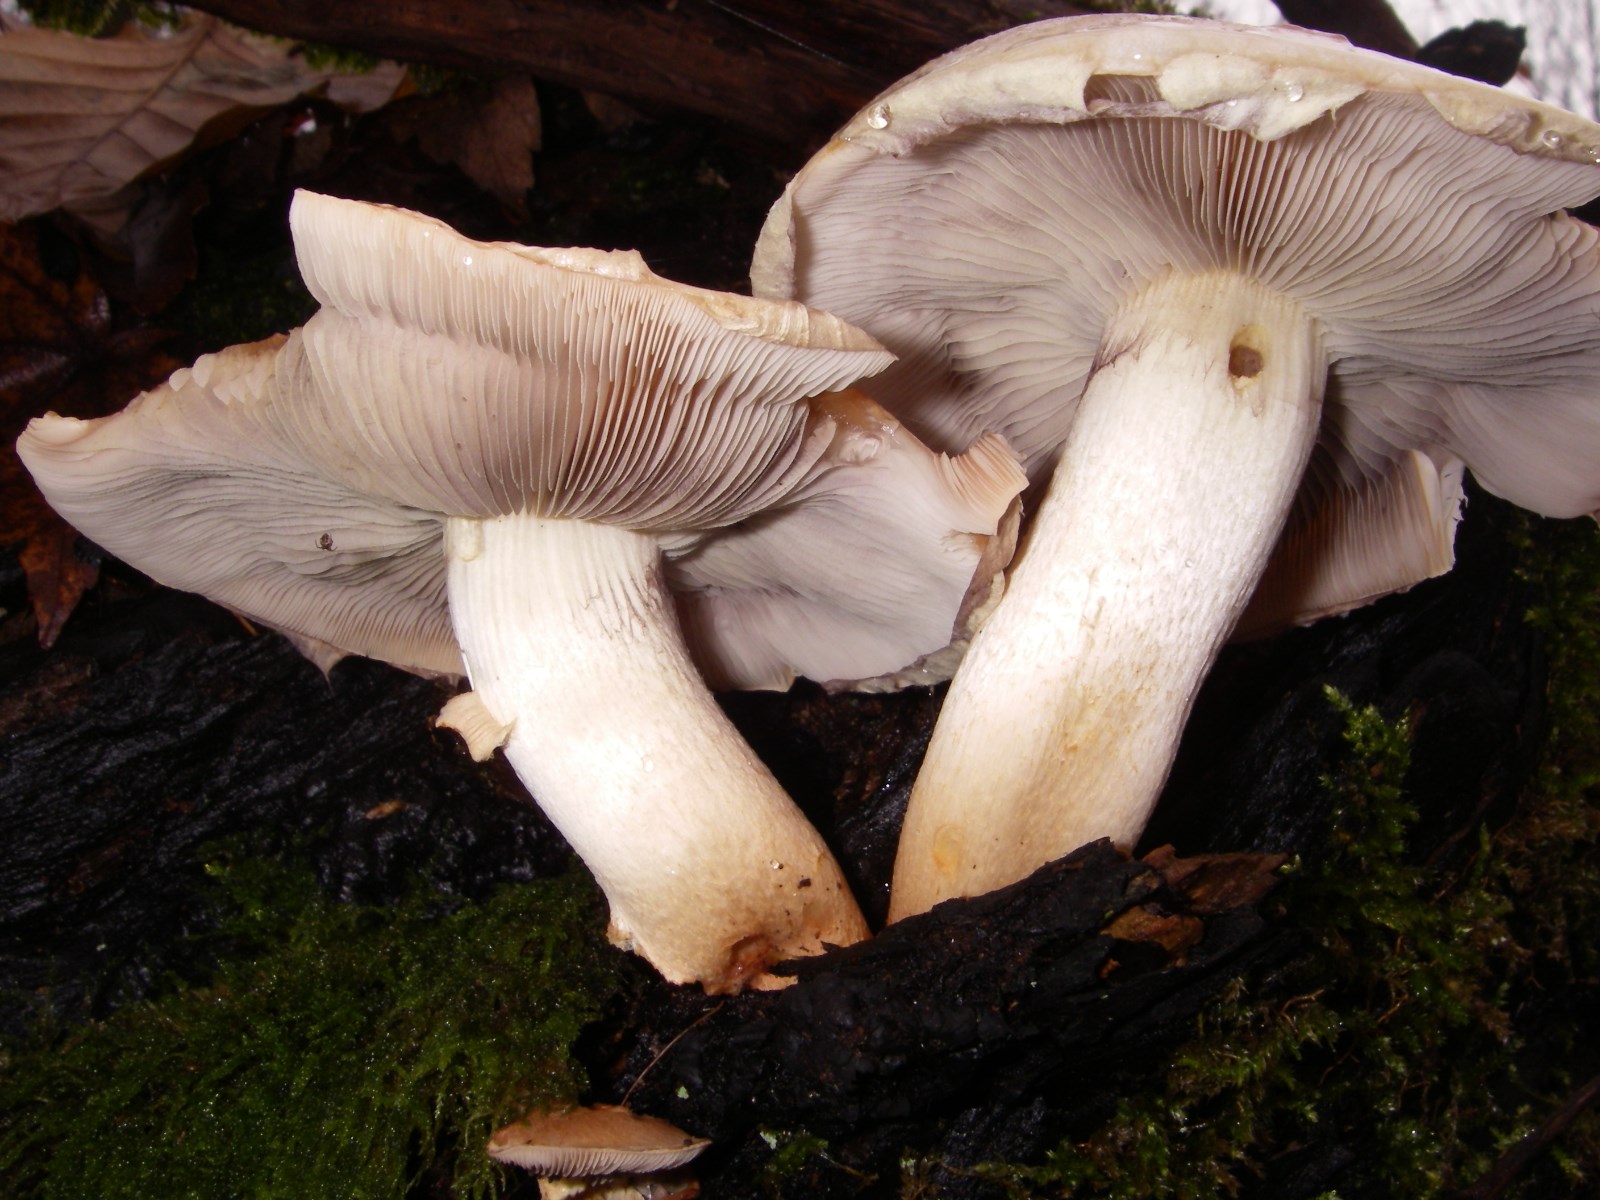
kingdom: Fungi
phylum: Basidiomycota
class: Agaricomycetes
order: Agaricales
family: Strophariaceae
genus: Hypholoma
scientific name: Hypholoma lateritium
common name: teglrød svovlhat
